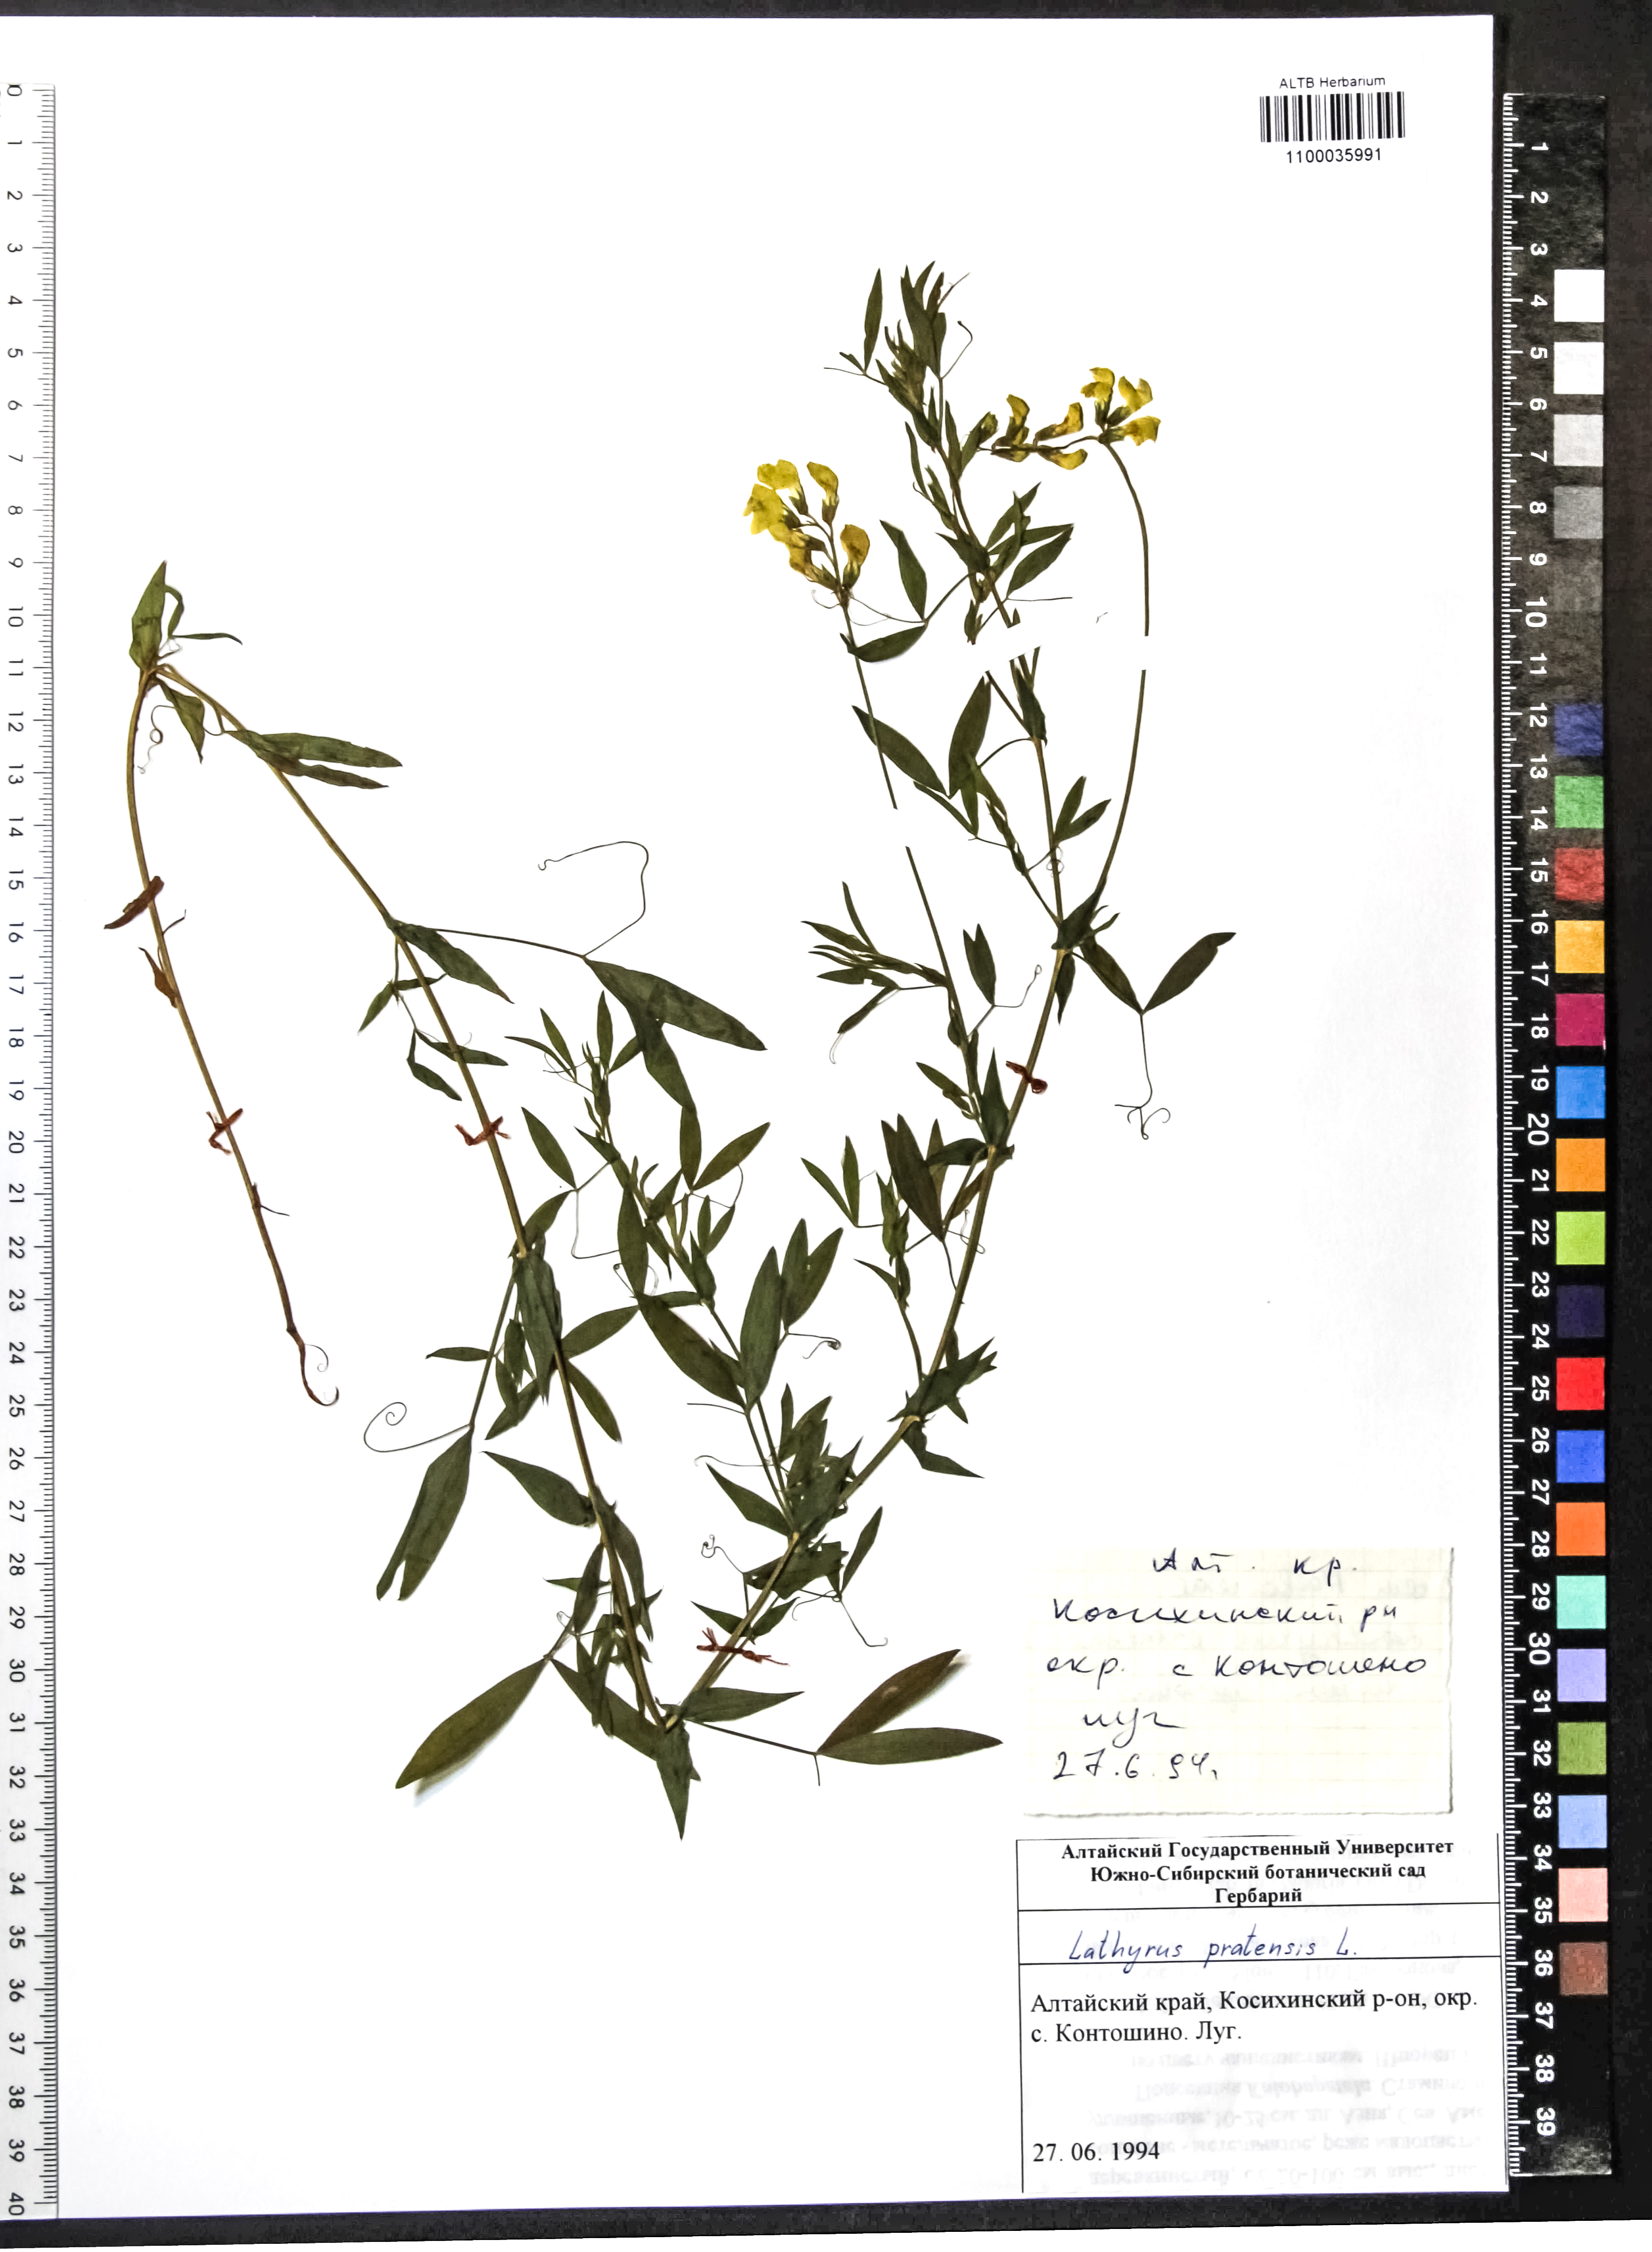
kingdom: Plantae
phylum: Tracheophyta
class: Magnoliopsida
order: Fabales
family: Fabaceae
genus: Lathyrus
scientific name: Lathyrus pratensis
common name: Meadow vetchling
